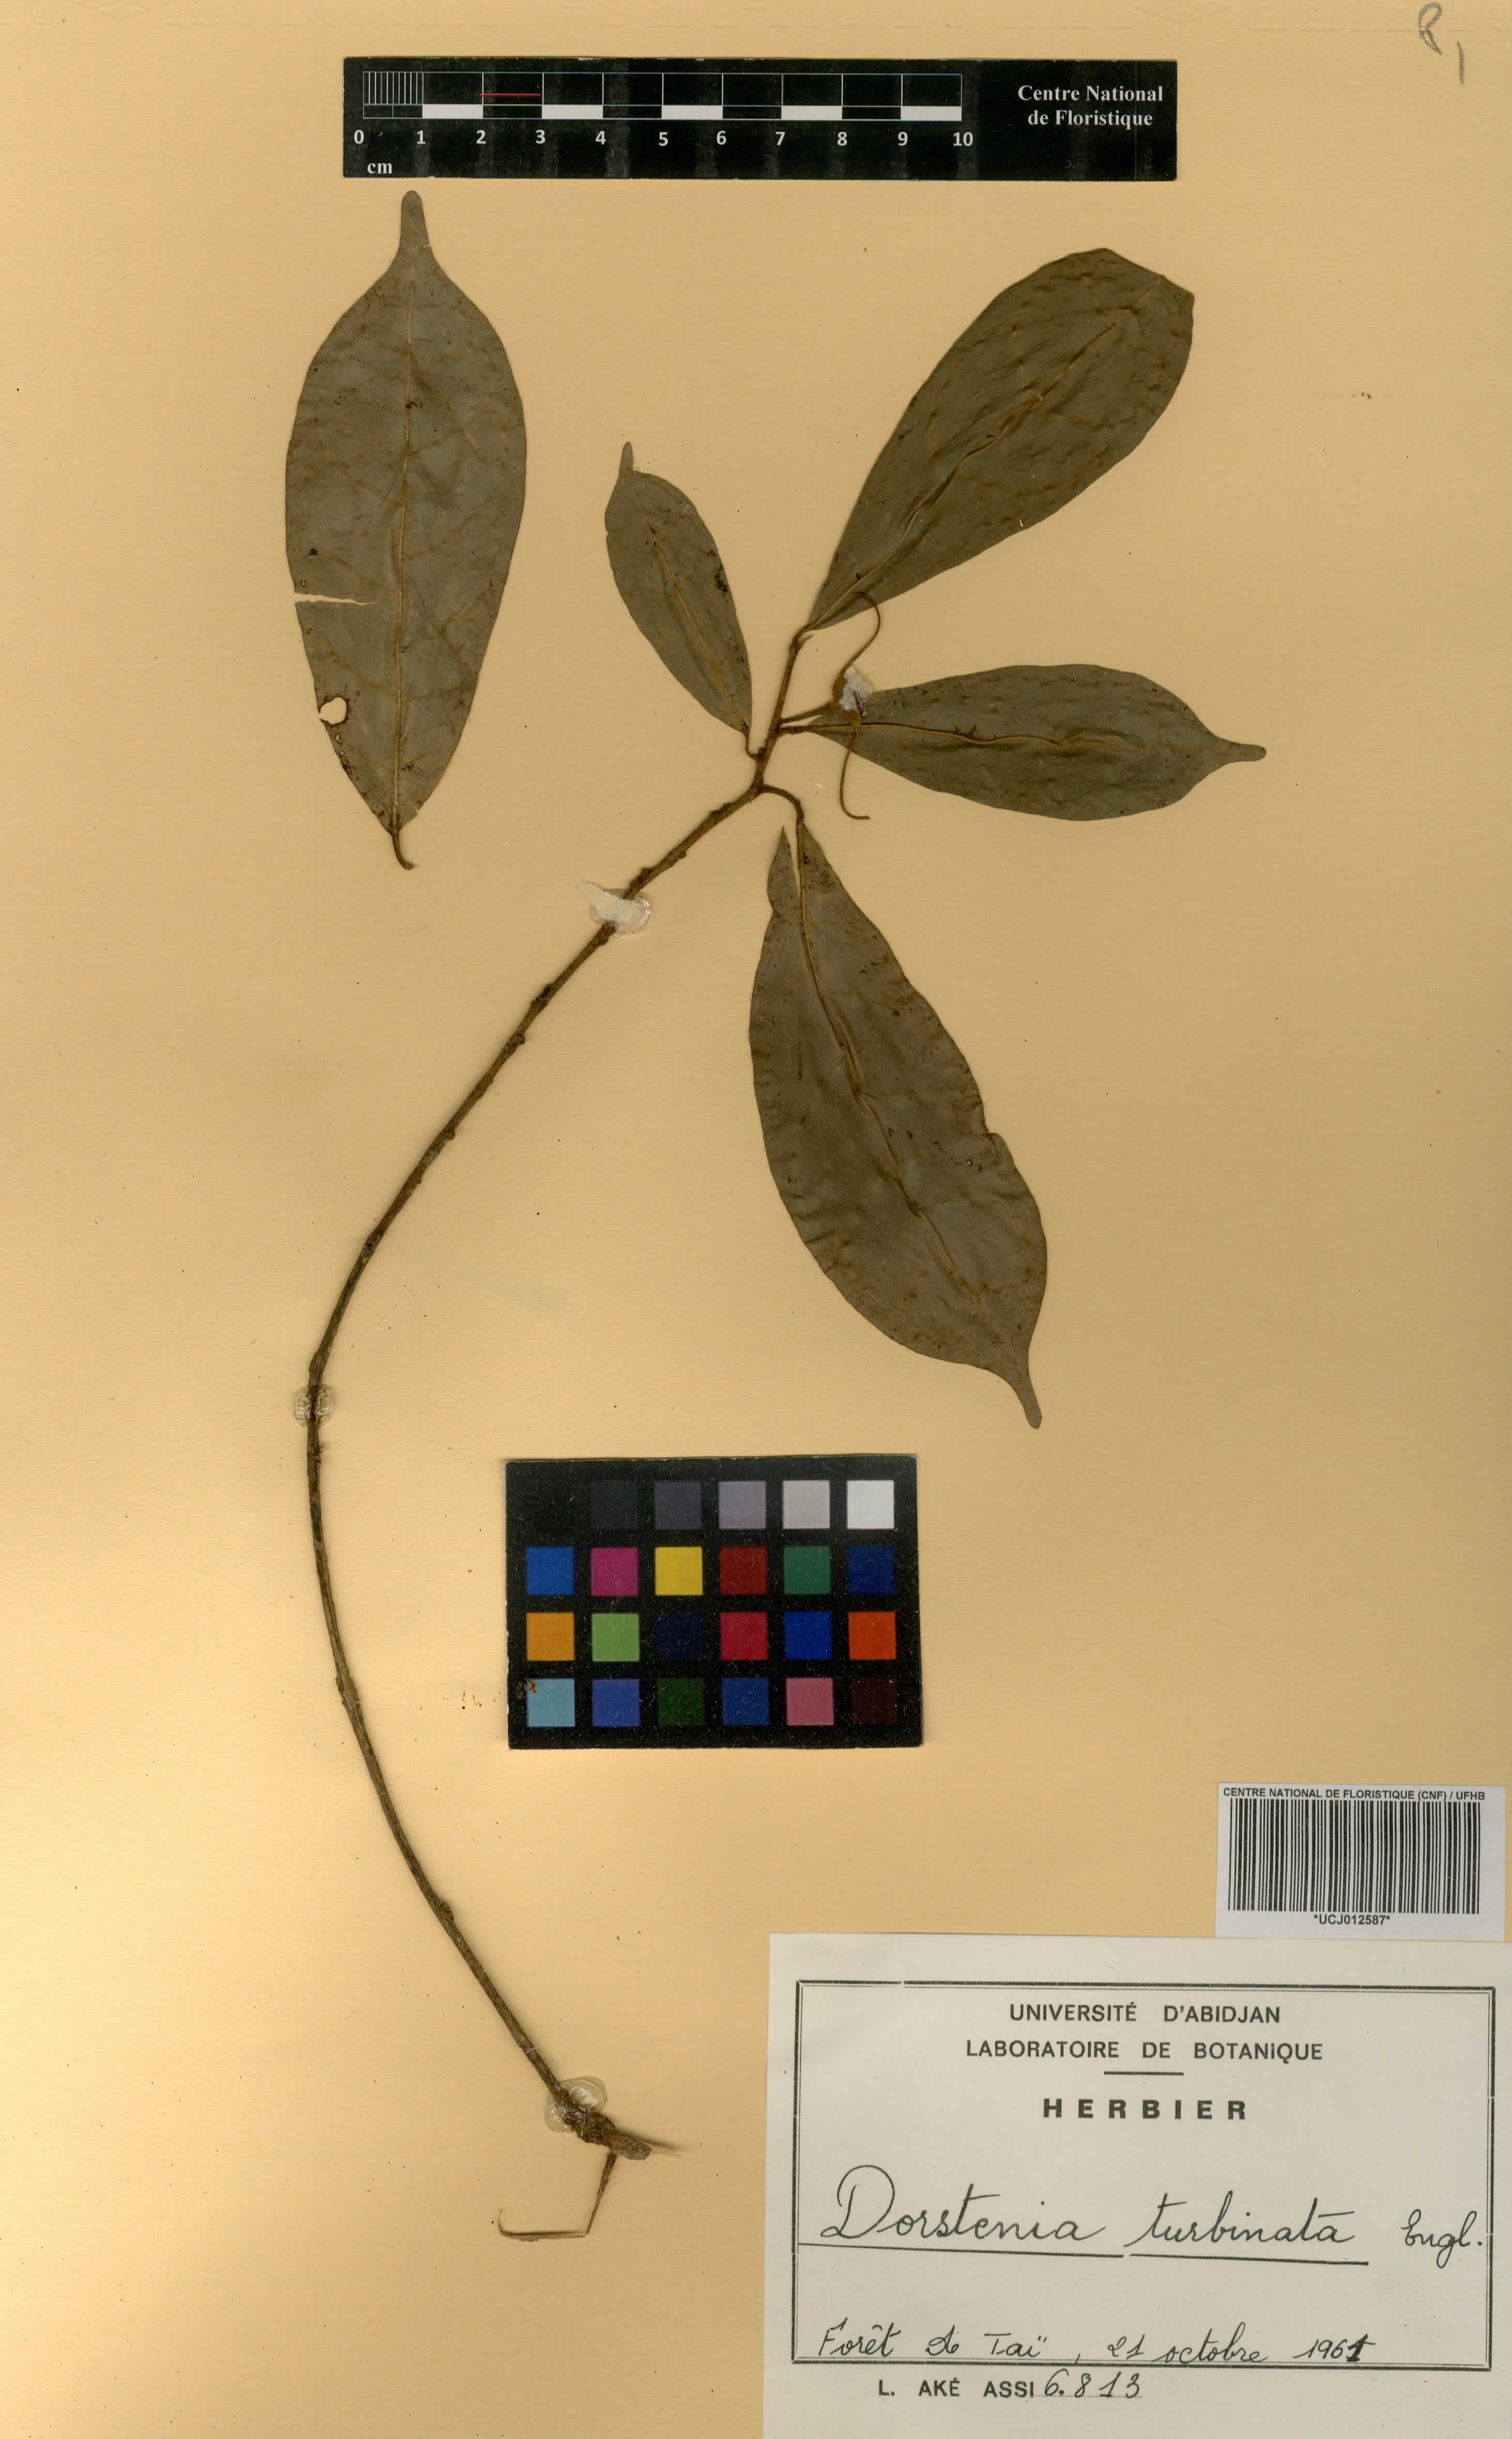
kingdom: Plantae
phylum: Tracheophyta
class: Magnoliopsida
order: Rosales
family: Moraceae
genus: Hijmania
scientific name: Hijmania turbinata
